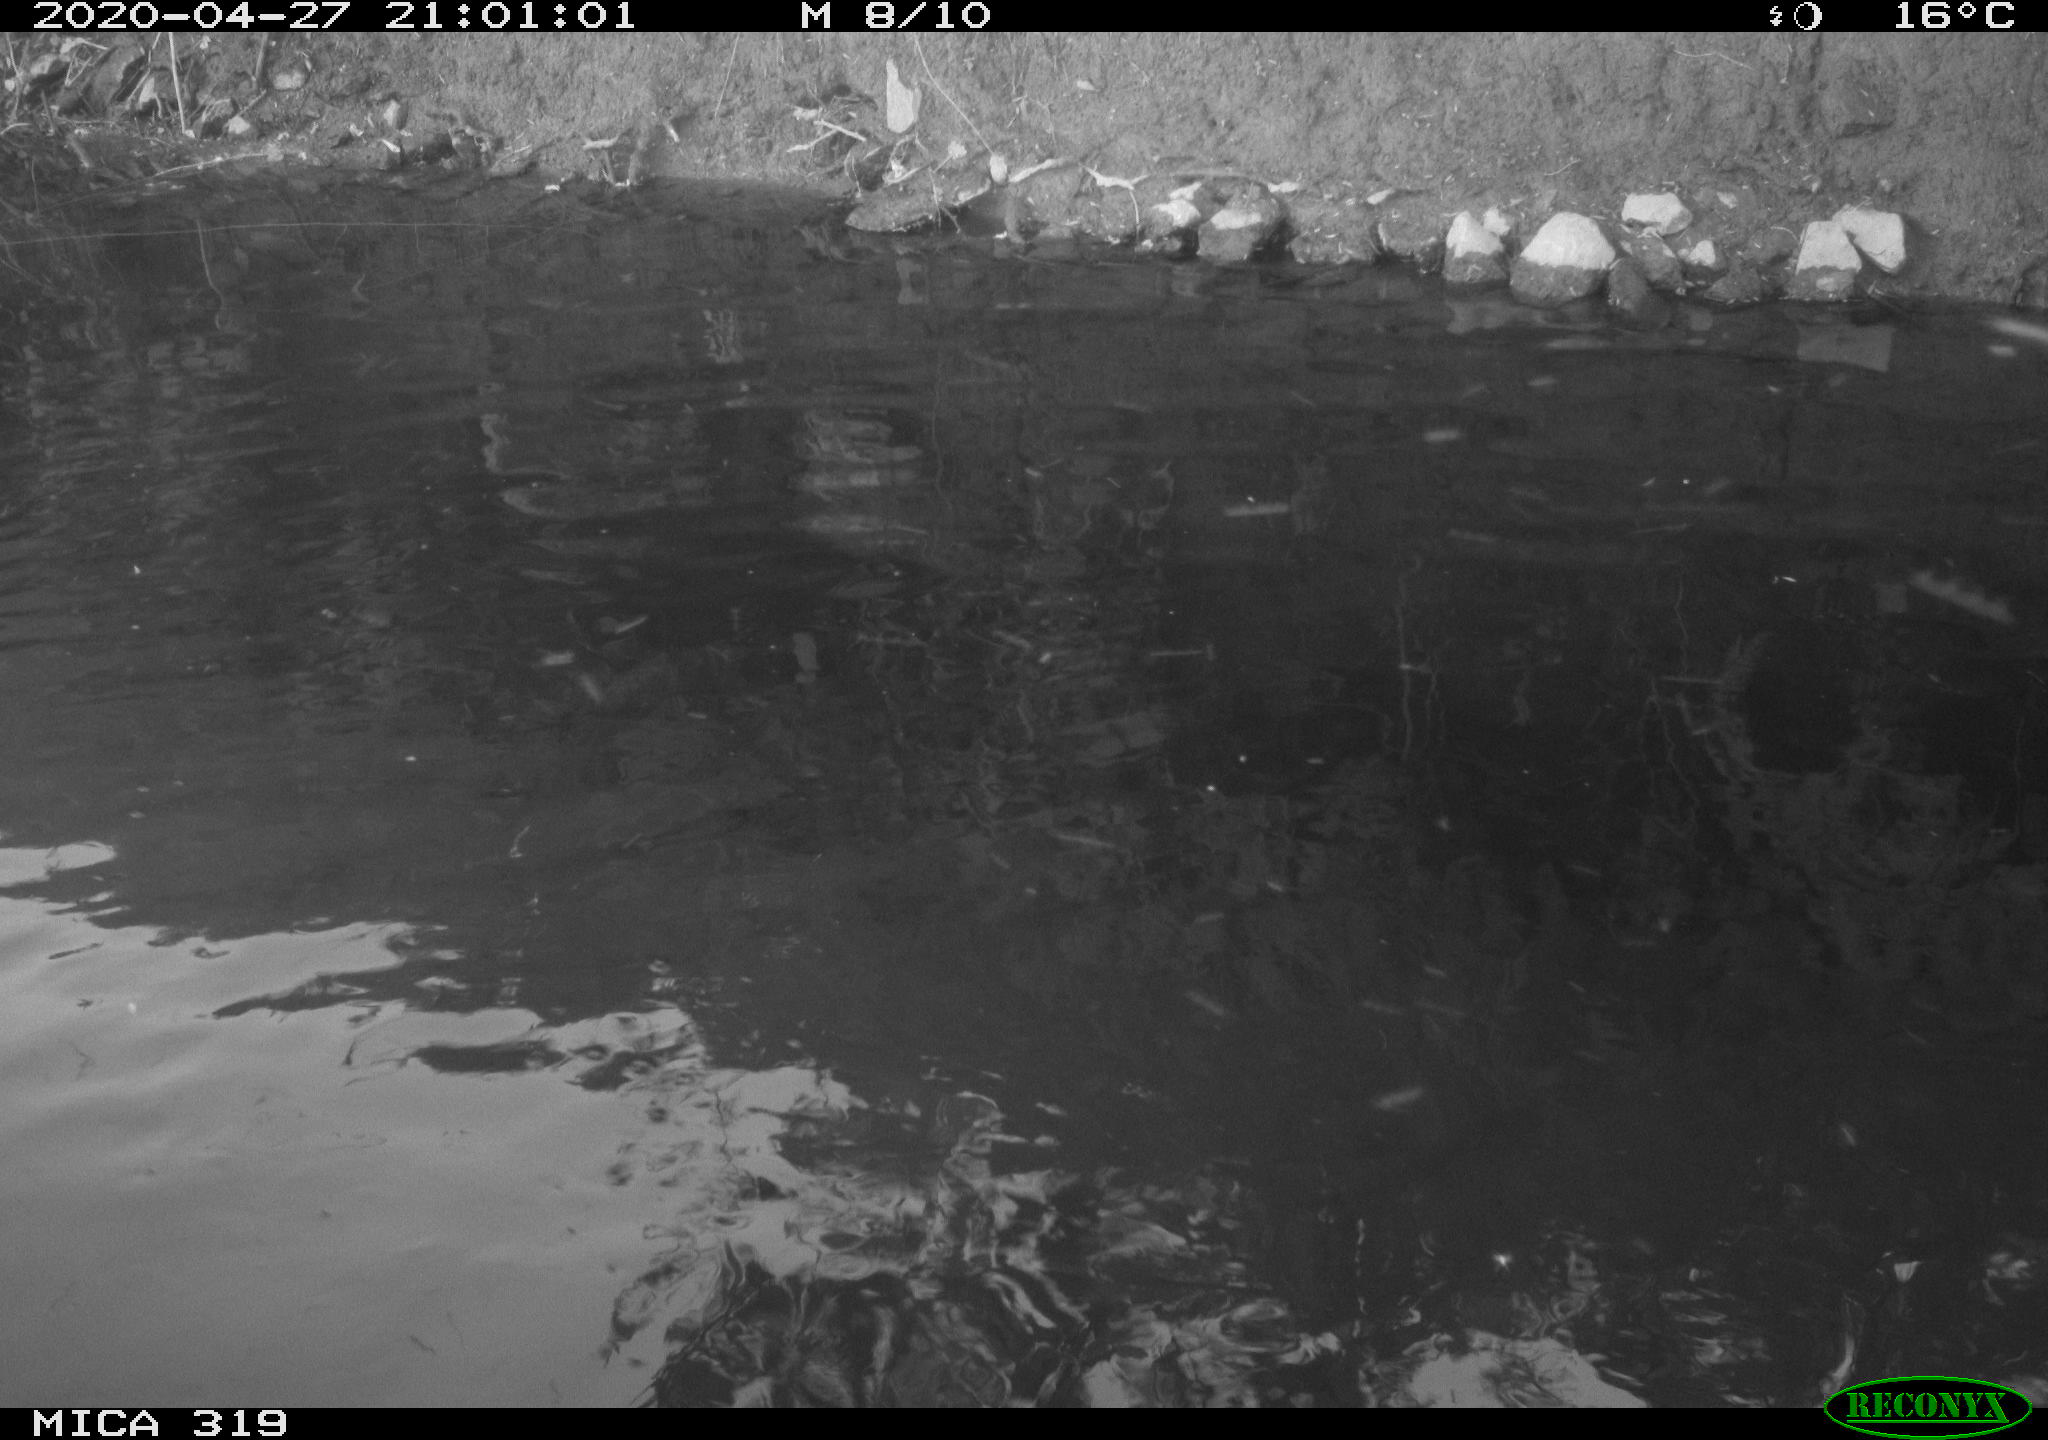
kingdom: Animalia
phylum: Chordata
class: Aves
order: Anseriformes
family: Anatidae
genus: Anas
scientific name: Anas platyrhynchos
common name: Mallard
